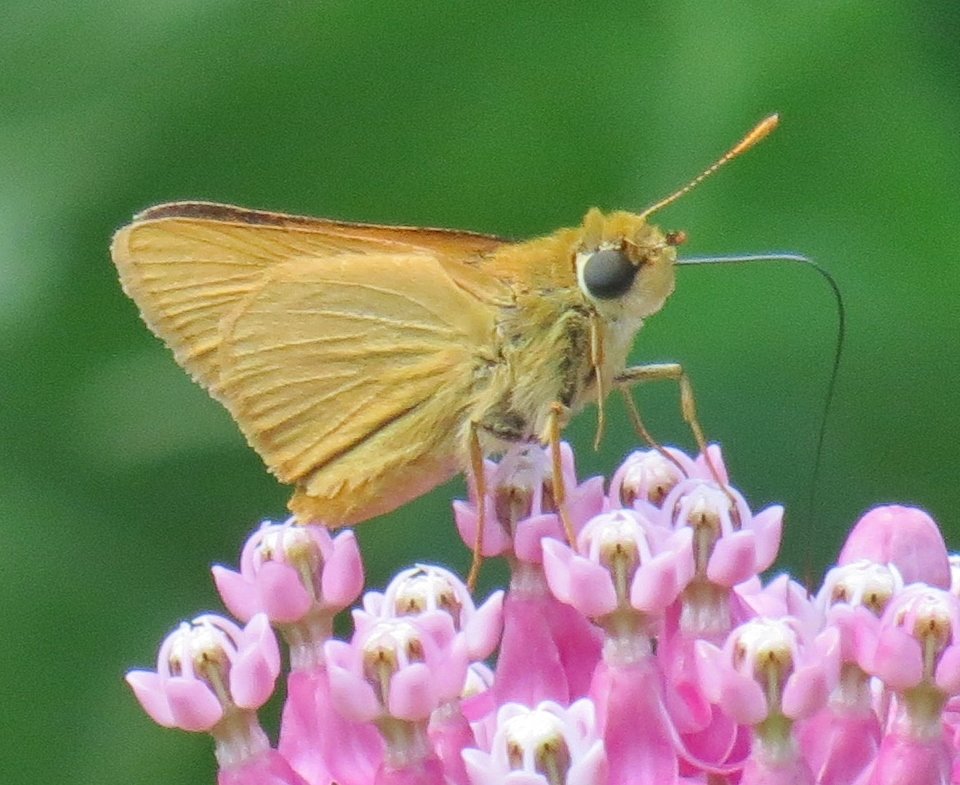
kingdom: Animalia
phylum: Arthropoda
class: Insecta
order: Lepidoptera
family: Hesperiidae
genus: Atrytone
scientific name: Atrytone delaware
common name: Delaware Skipper
